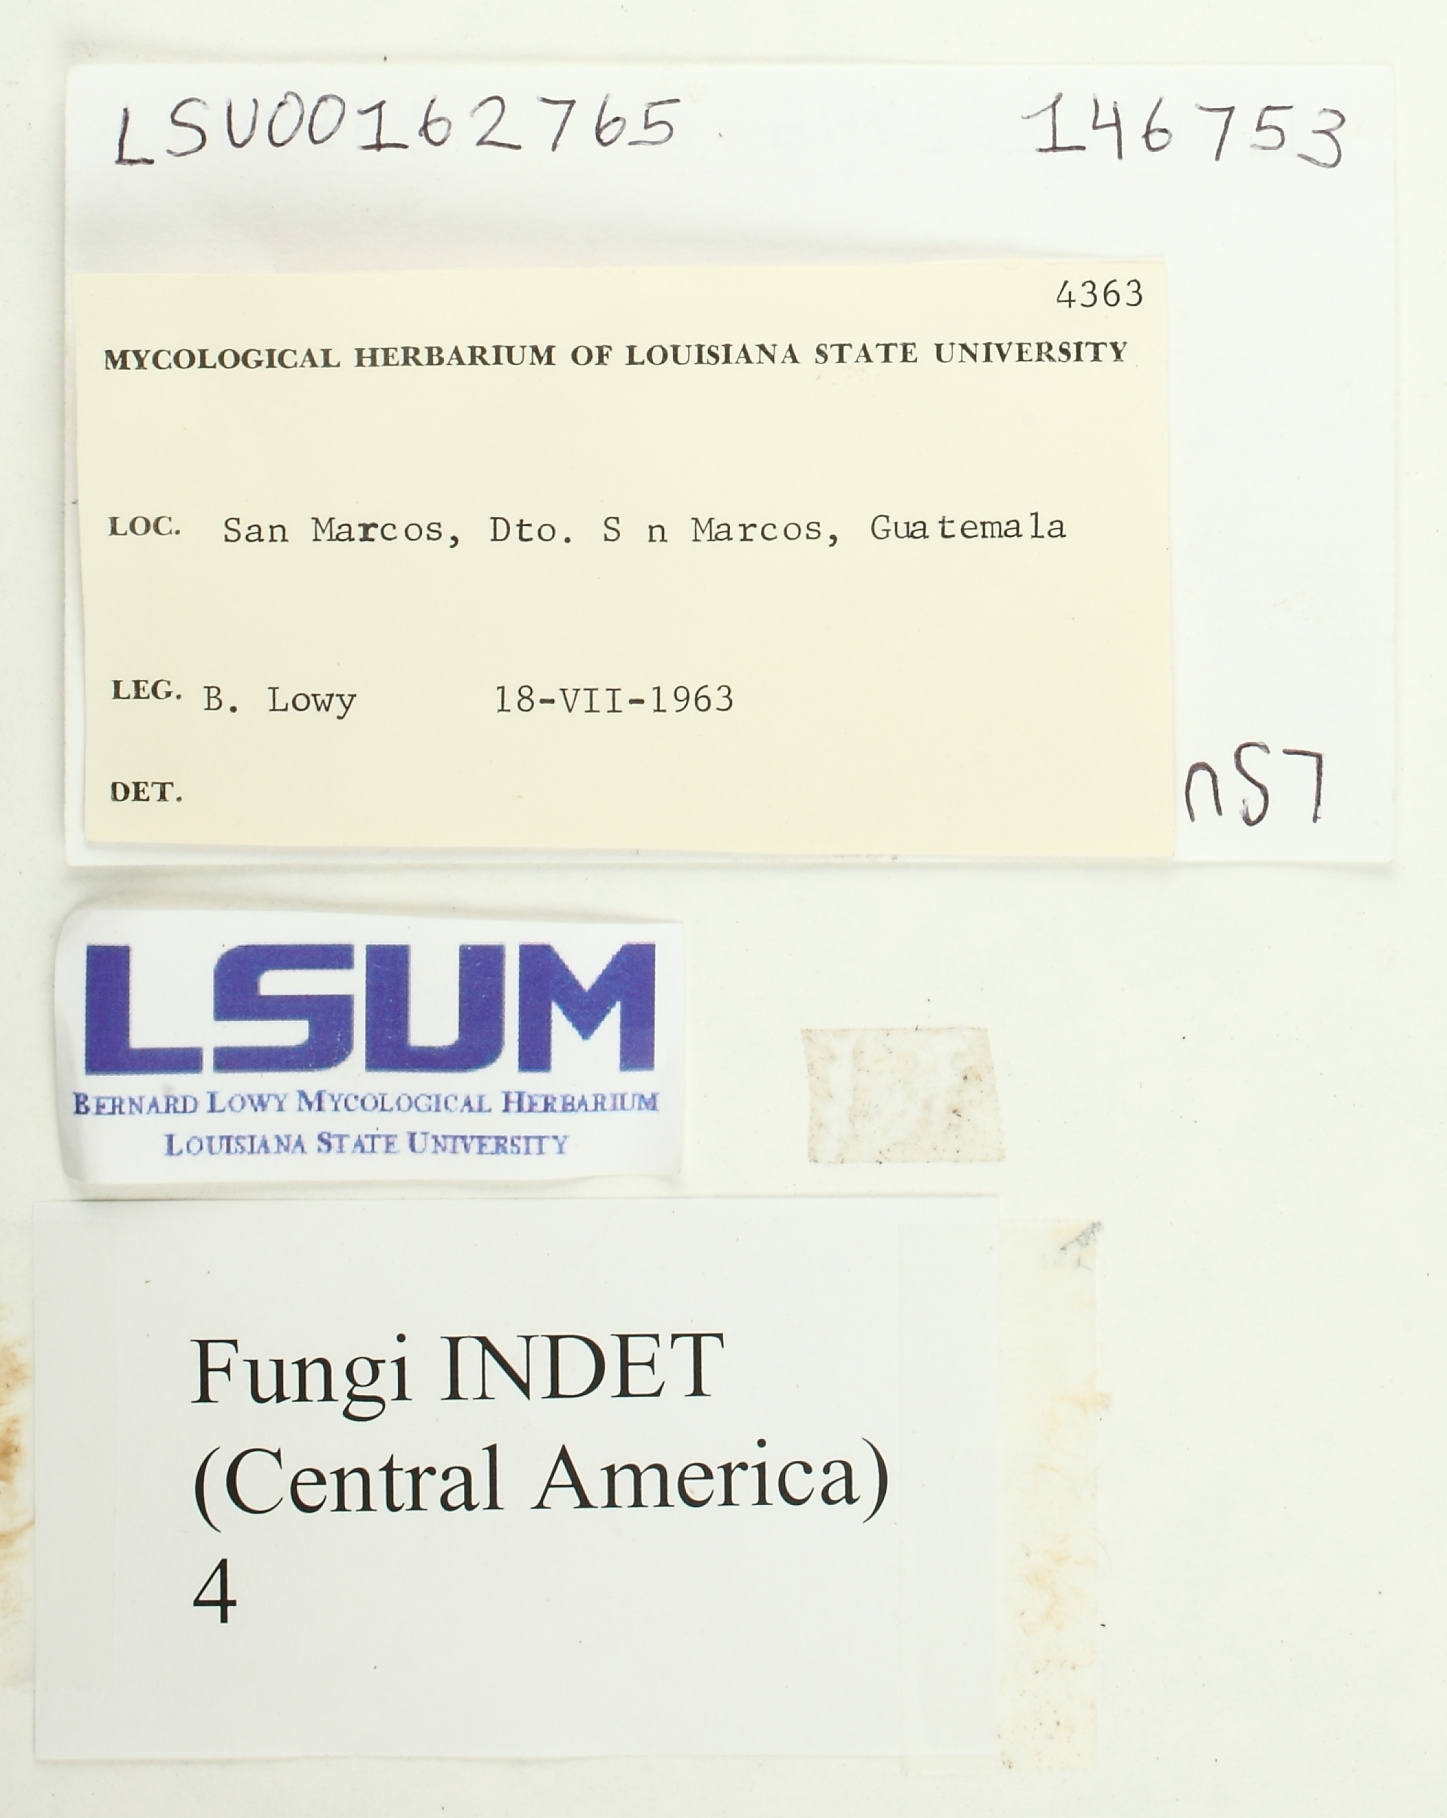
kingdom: Fungi
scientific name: Fungi
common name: Fungi
